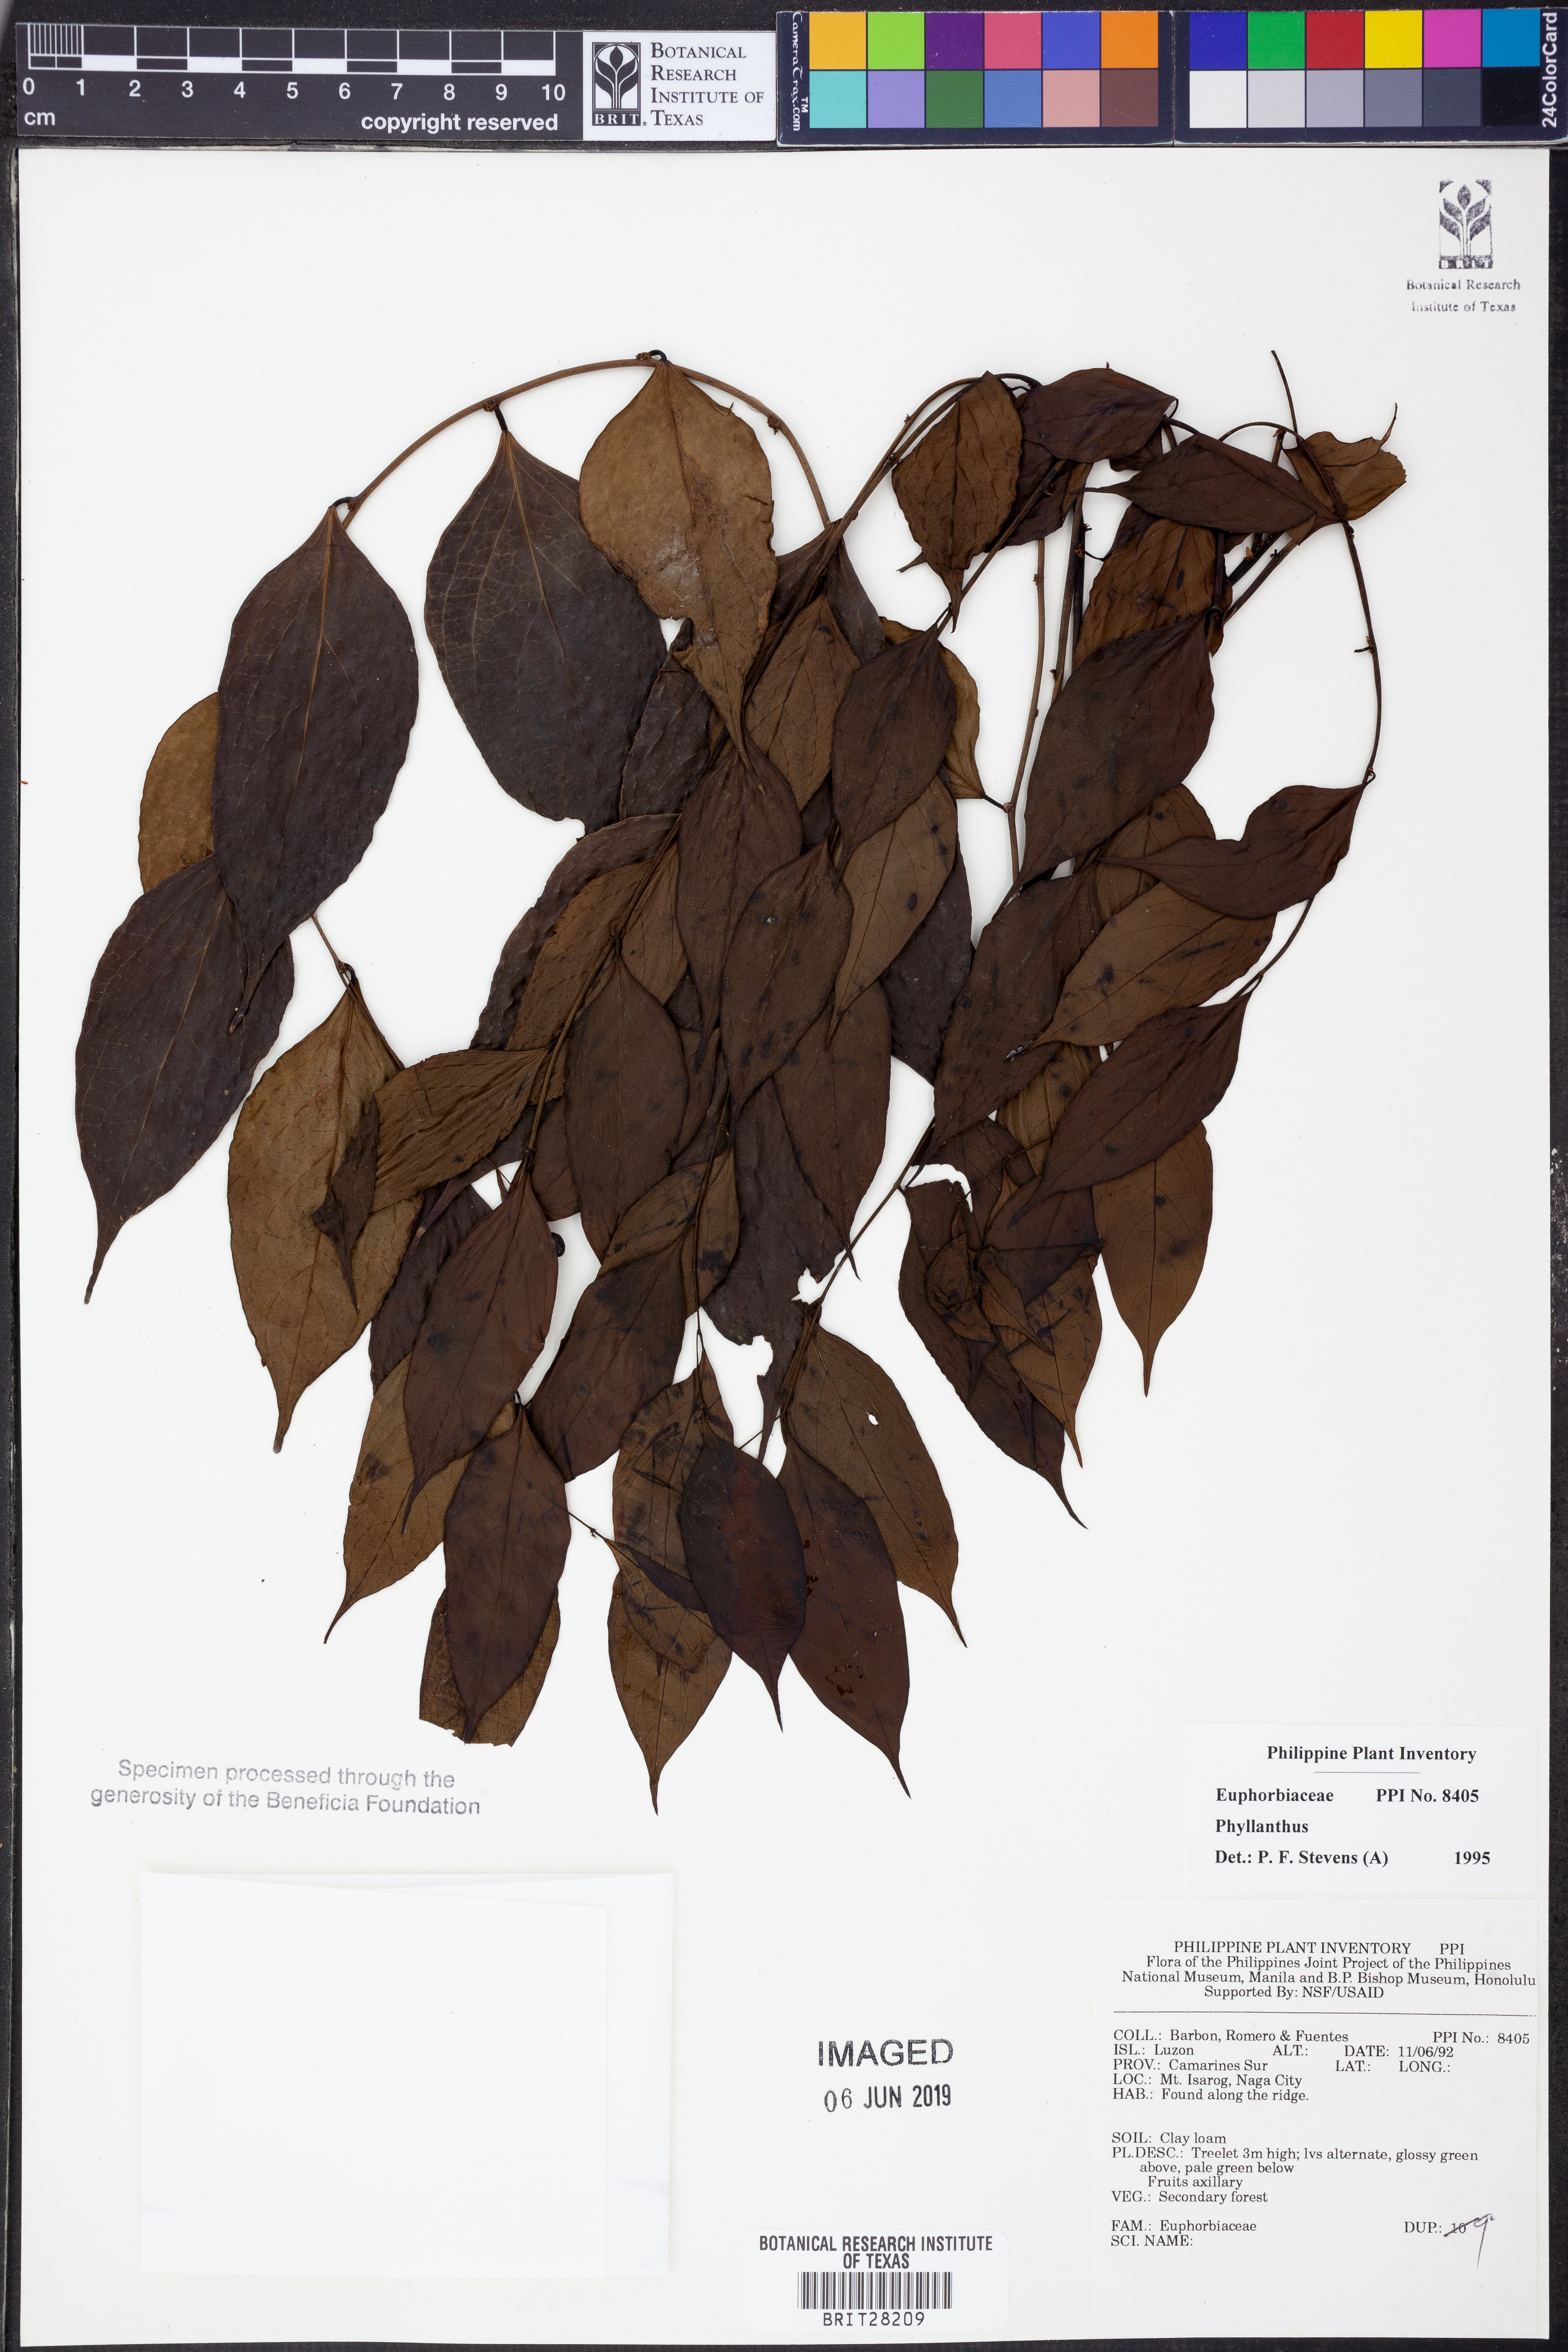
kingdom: Plantae
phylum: Tracheophyta
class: Magnoliopsida
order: Malpighiales
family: Phyllanthaceae
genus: Phyllanthus
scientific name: Phyllanthus
